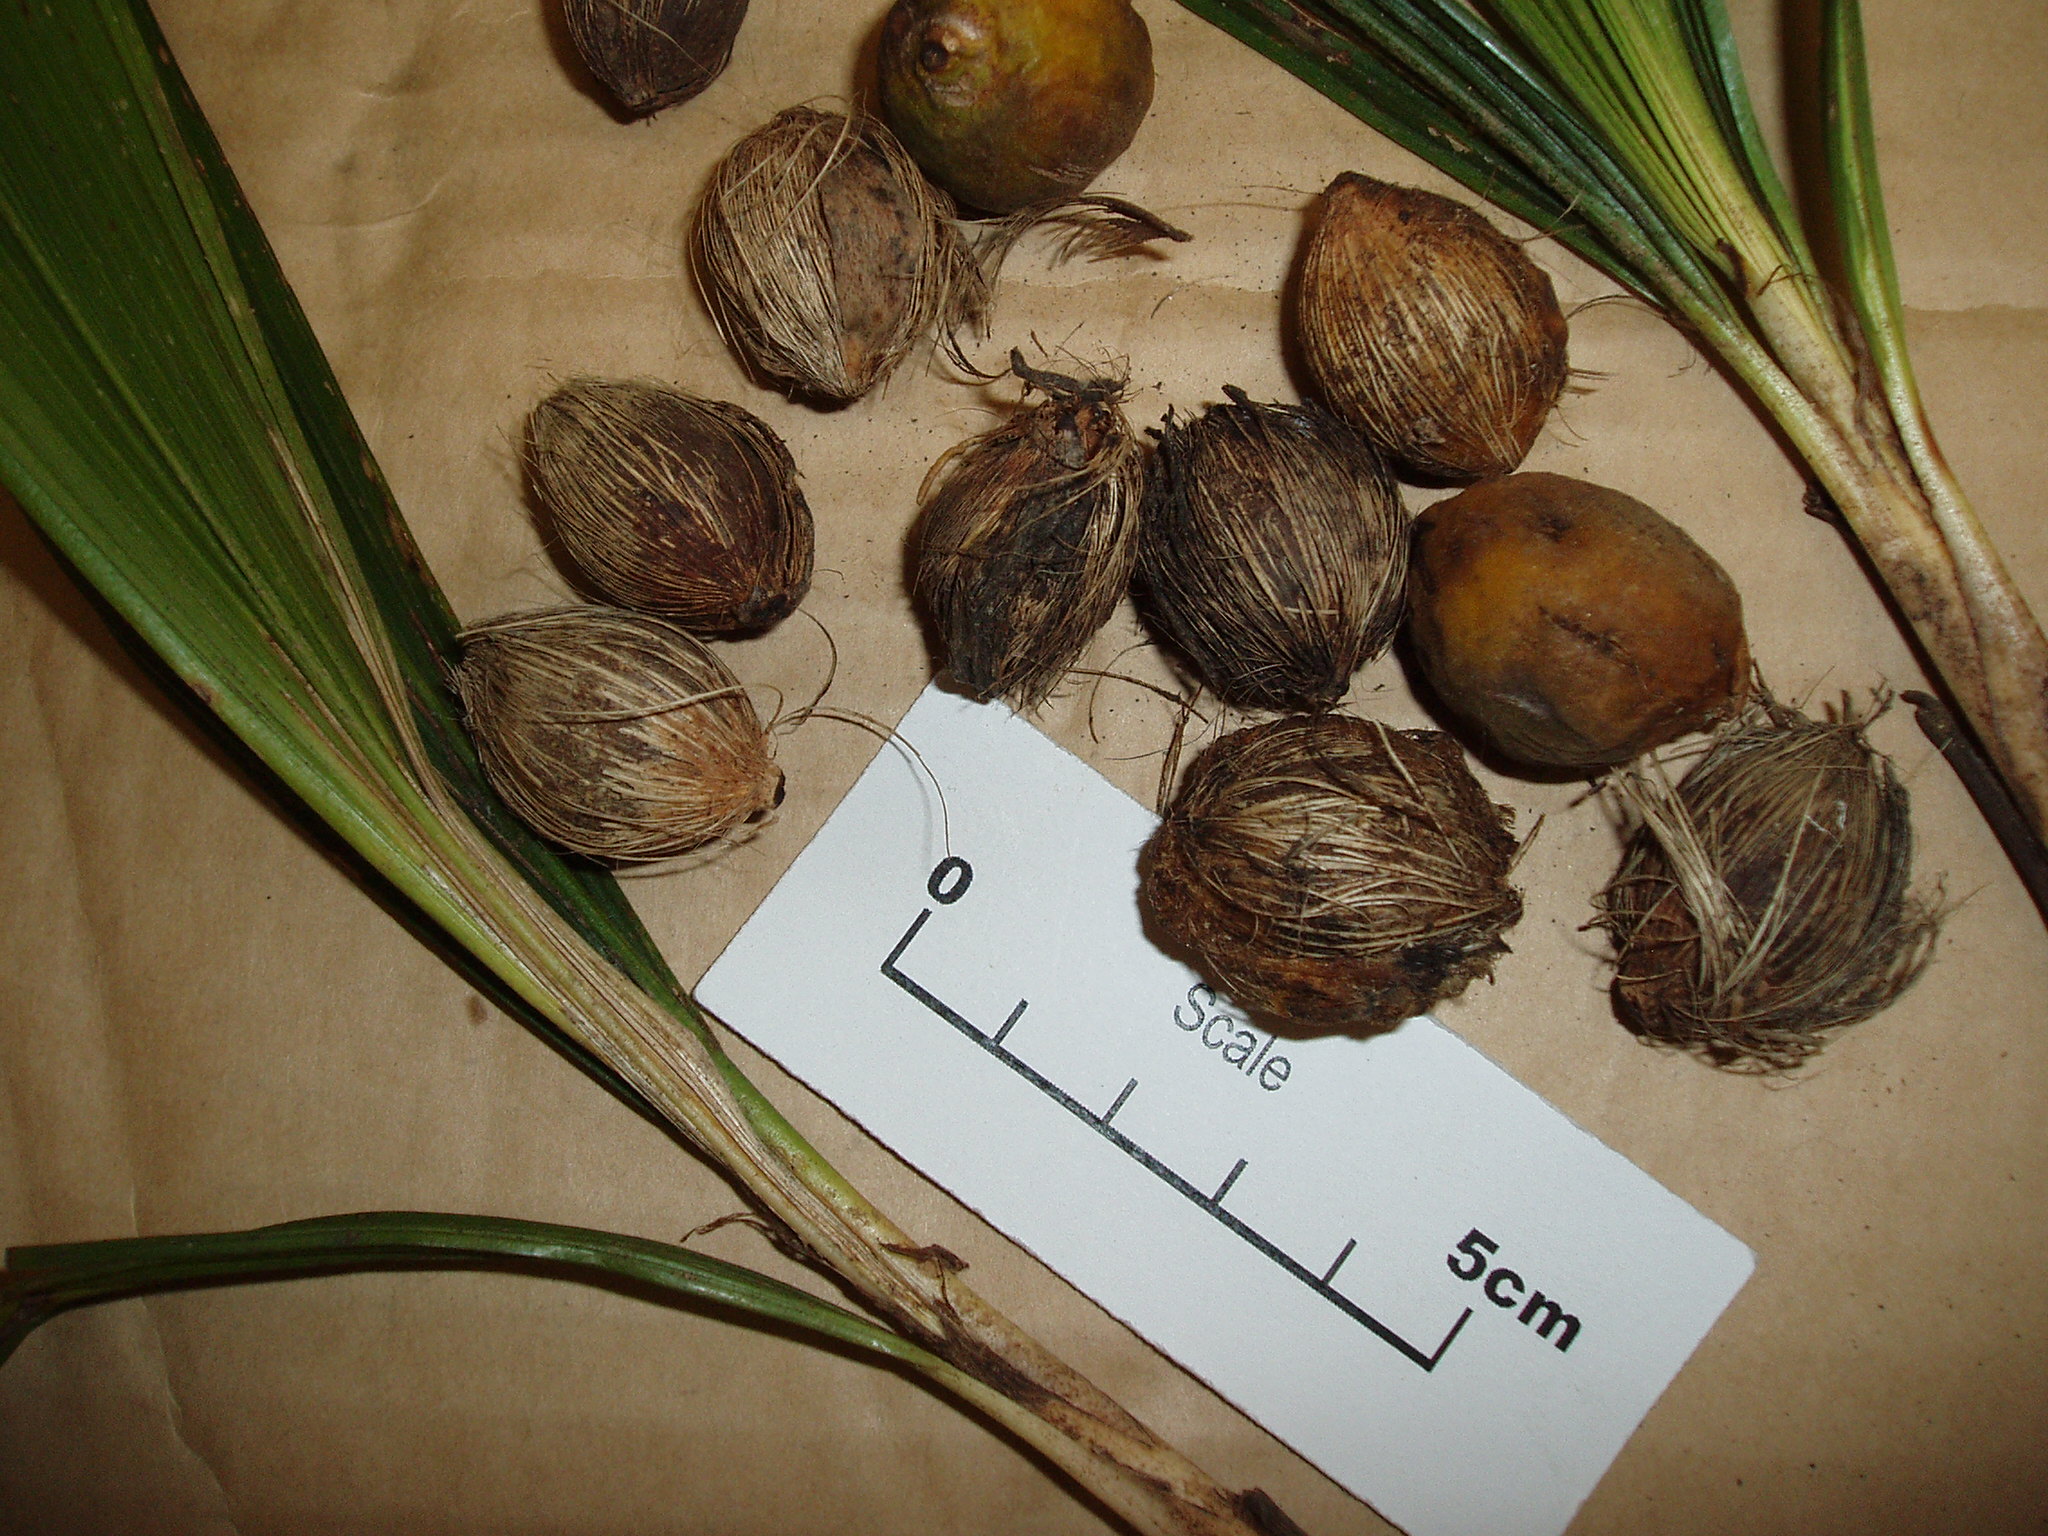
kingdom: Plantae
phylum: Tracheophyta
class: Liliopsida
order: Arecales
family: Arecaceae
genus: Syagrus
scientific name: Syagrus romanzoffiana
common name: Queen palm
